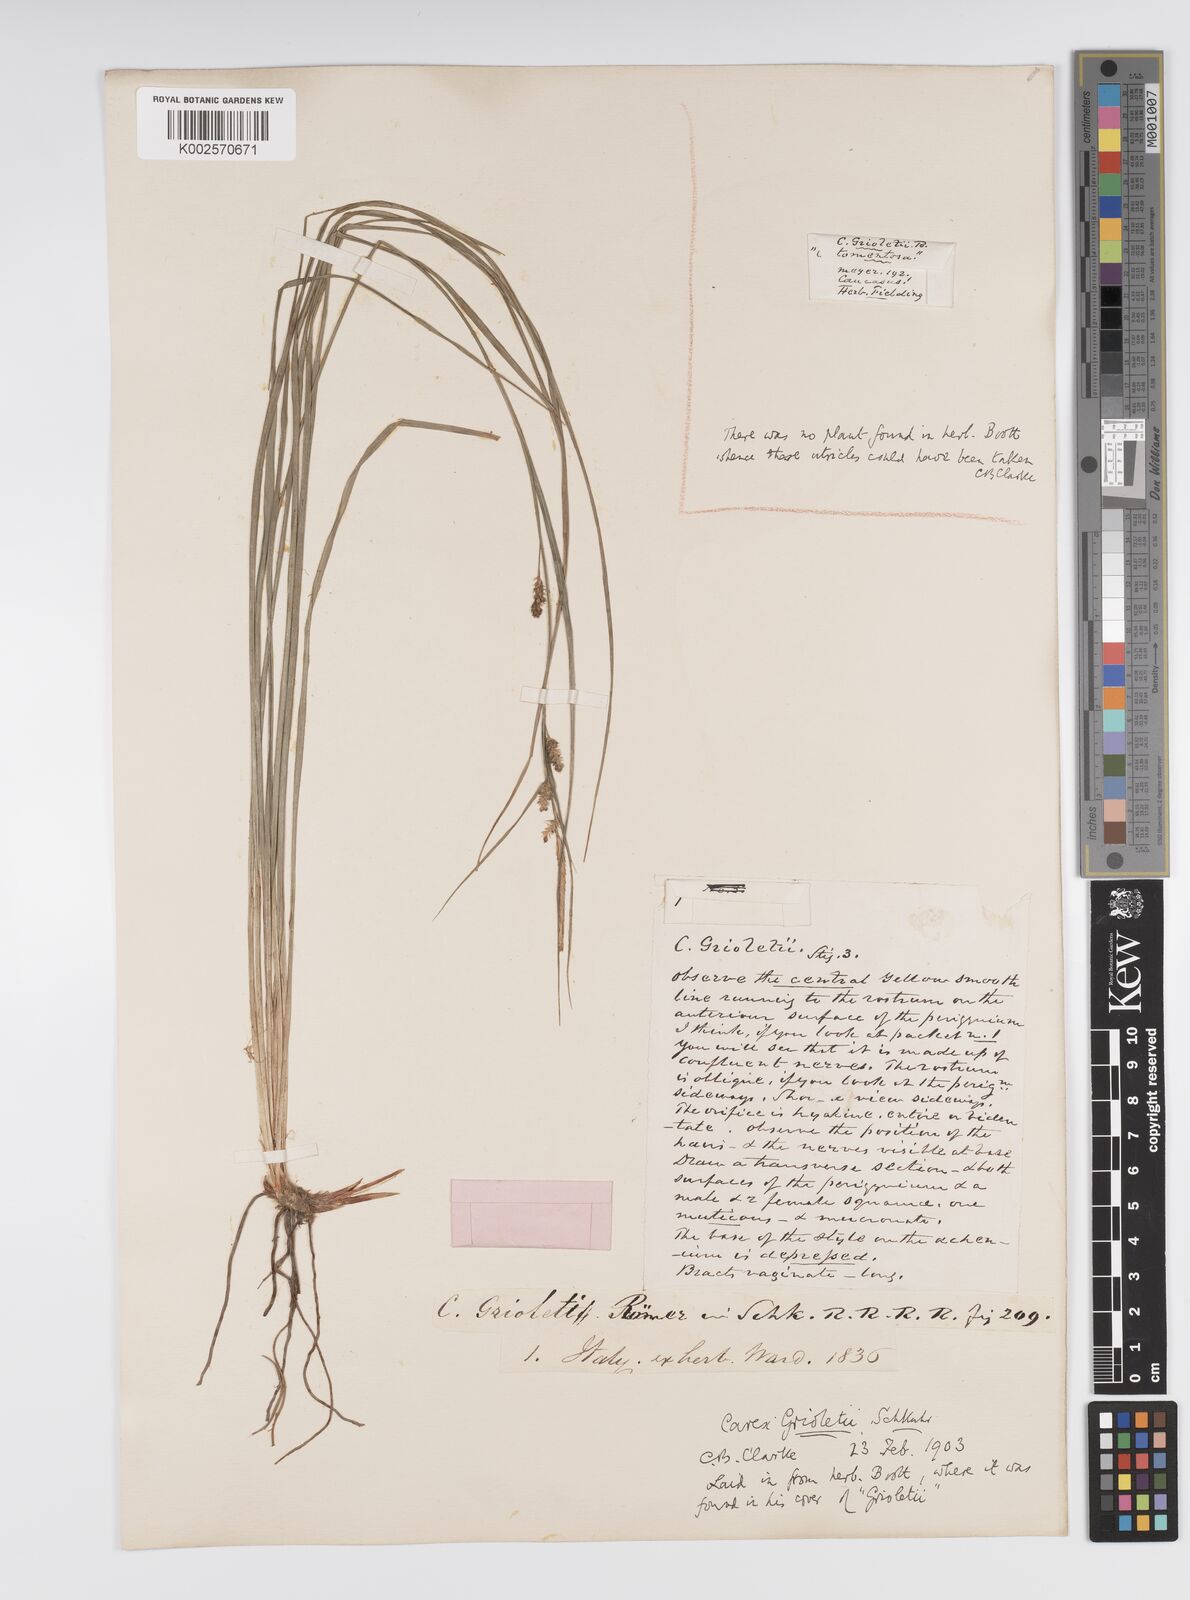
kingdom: Plantae
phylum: Tracheophyta
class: Liliopsida
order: Poales
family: Cyperaceae
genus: Carex
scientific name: Carex grioletii
